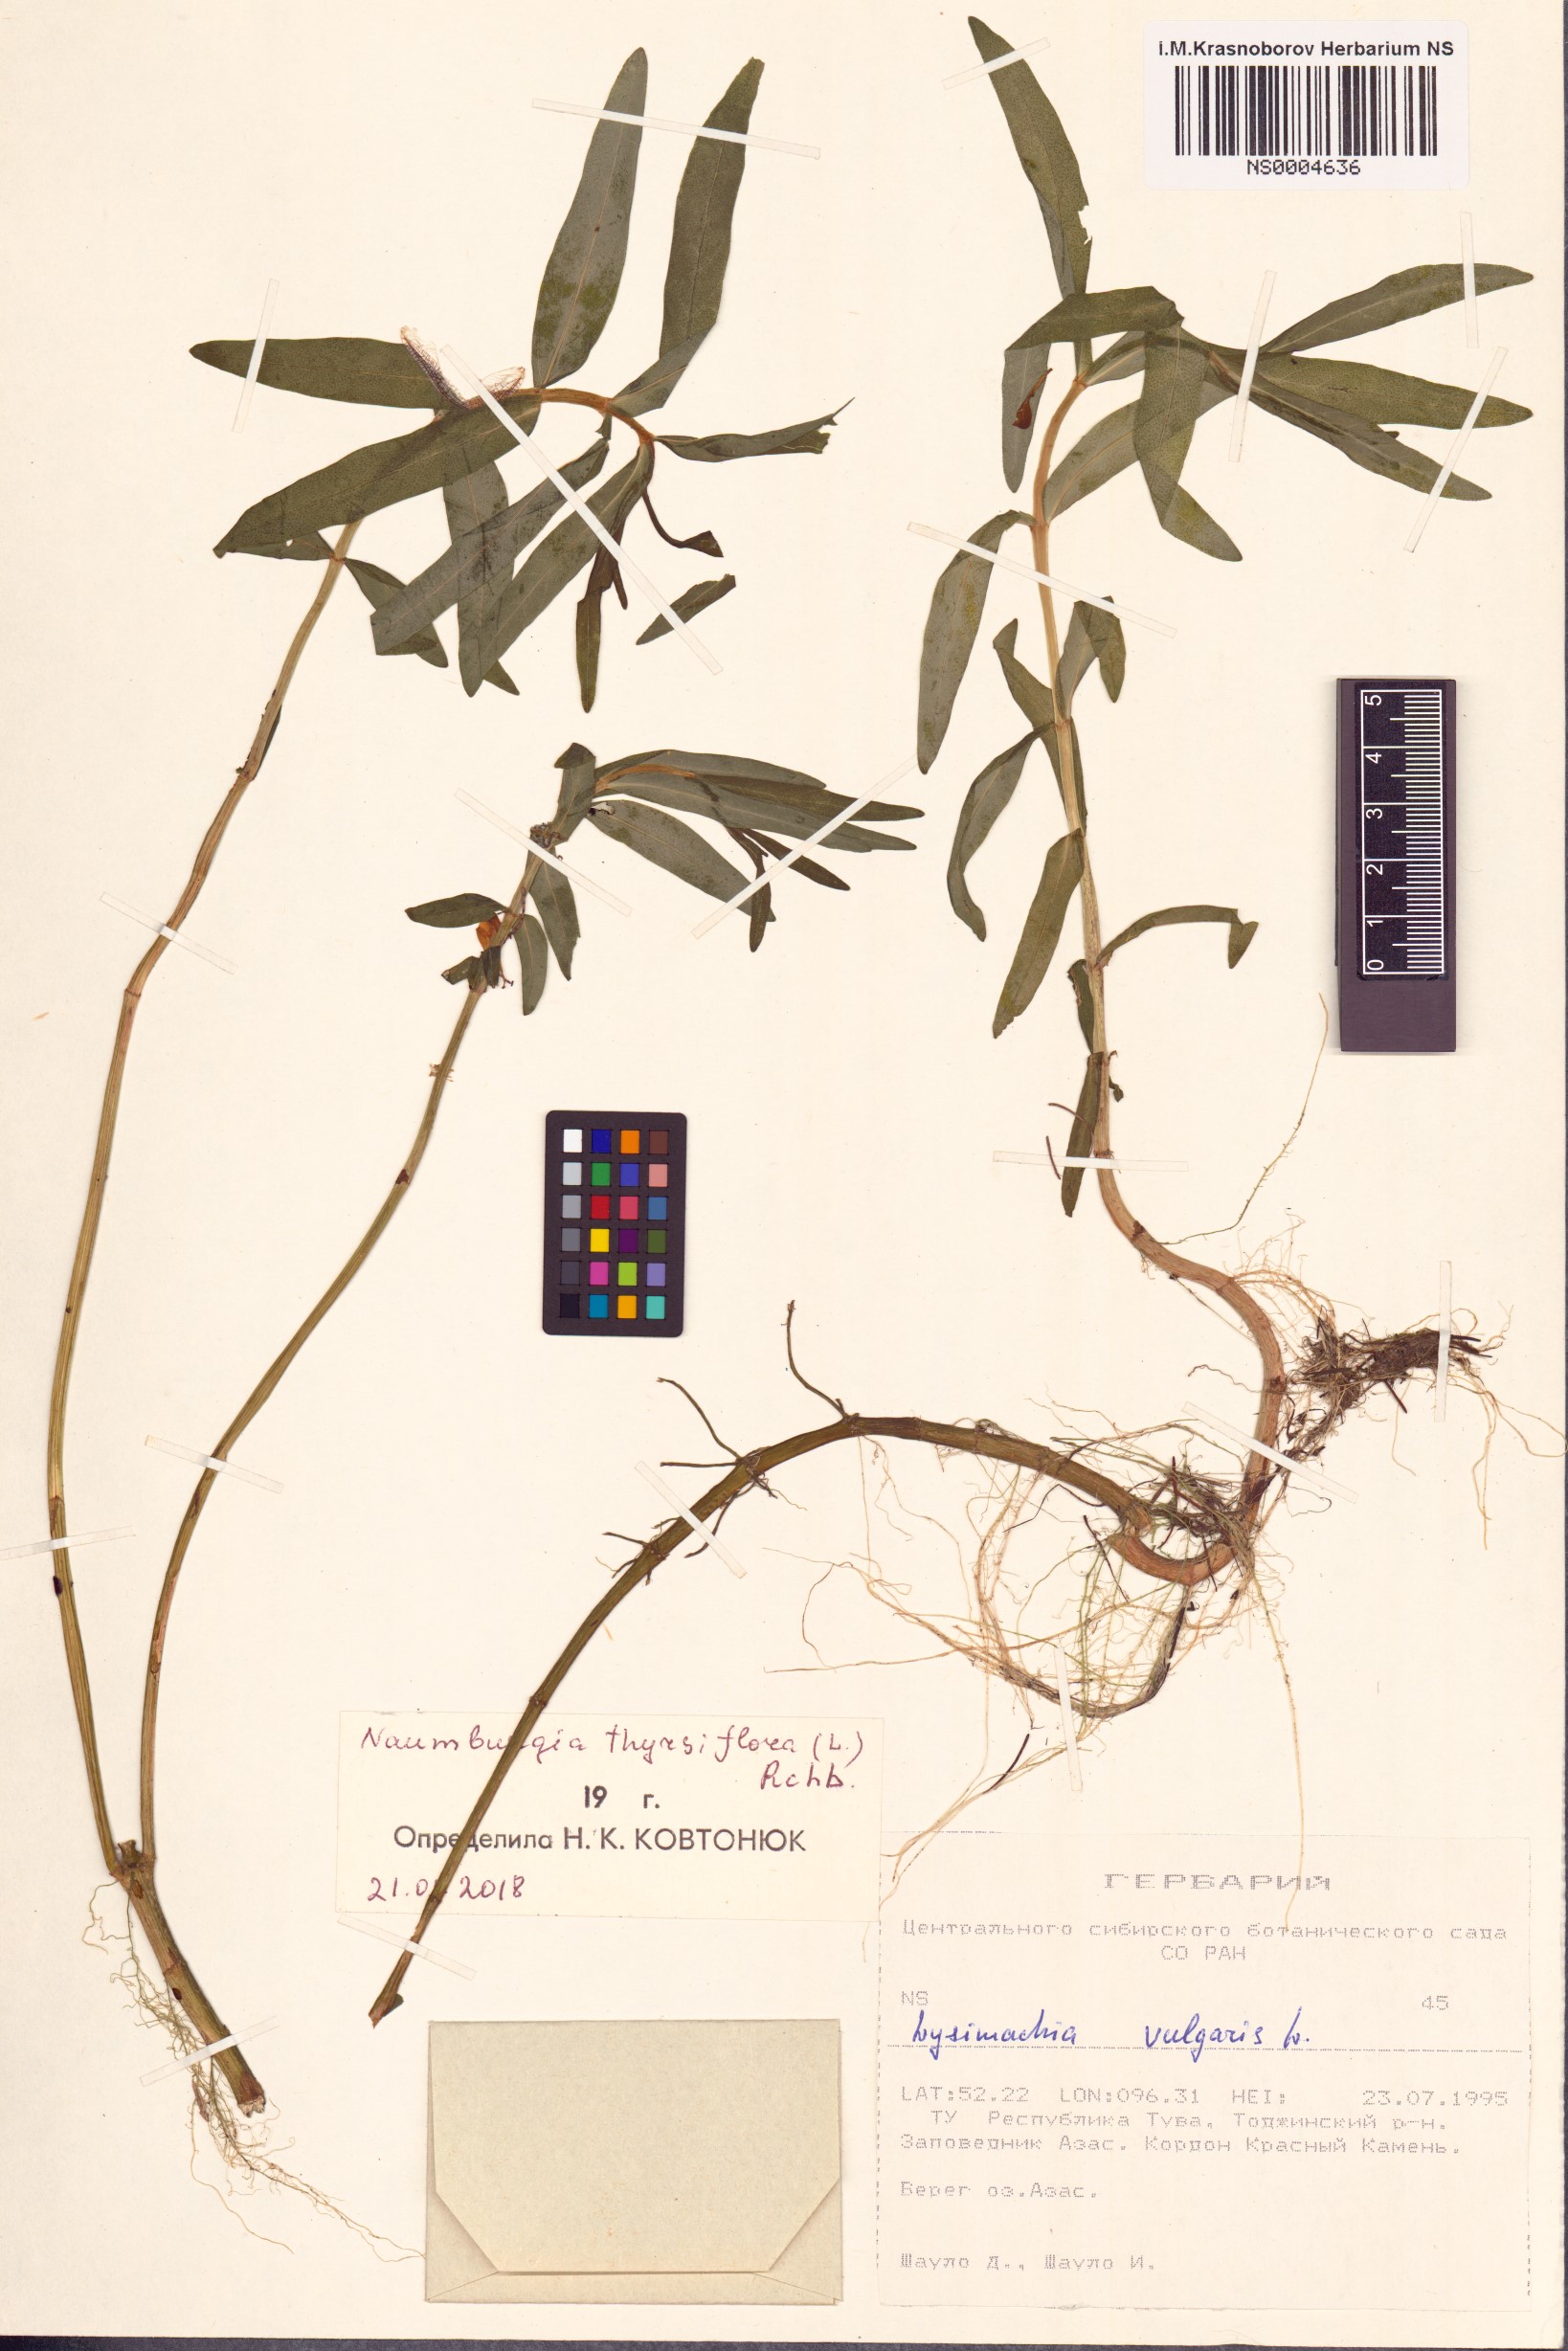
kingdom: Plantae
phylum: Tracheophyta
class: Magnoliopsida
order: Ericales
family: Primulaceae
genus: Lysimachia
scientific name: Lysimachia thyrsiflora
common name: Tufted loosestrife
